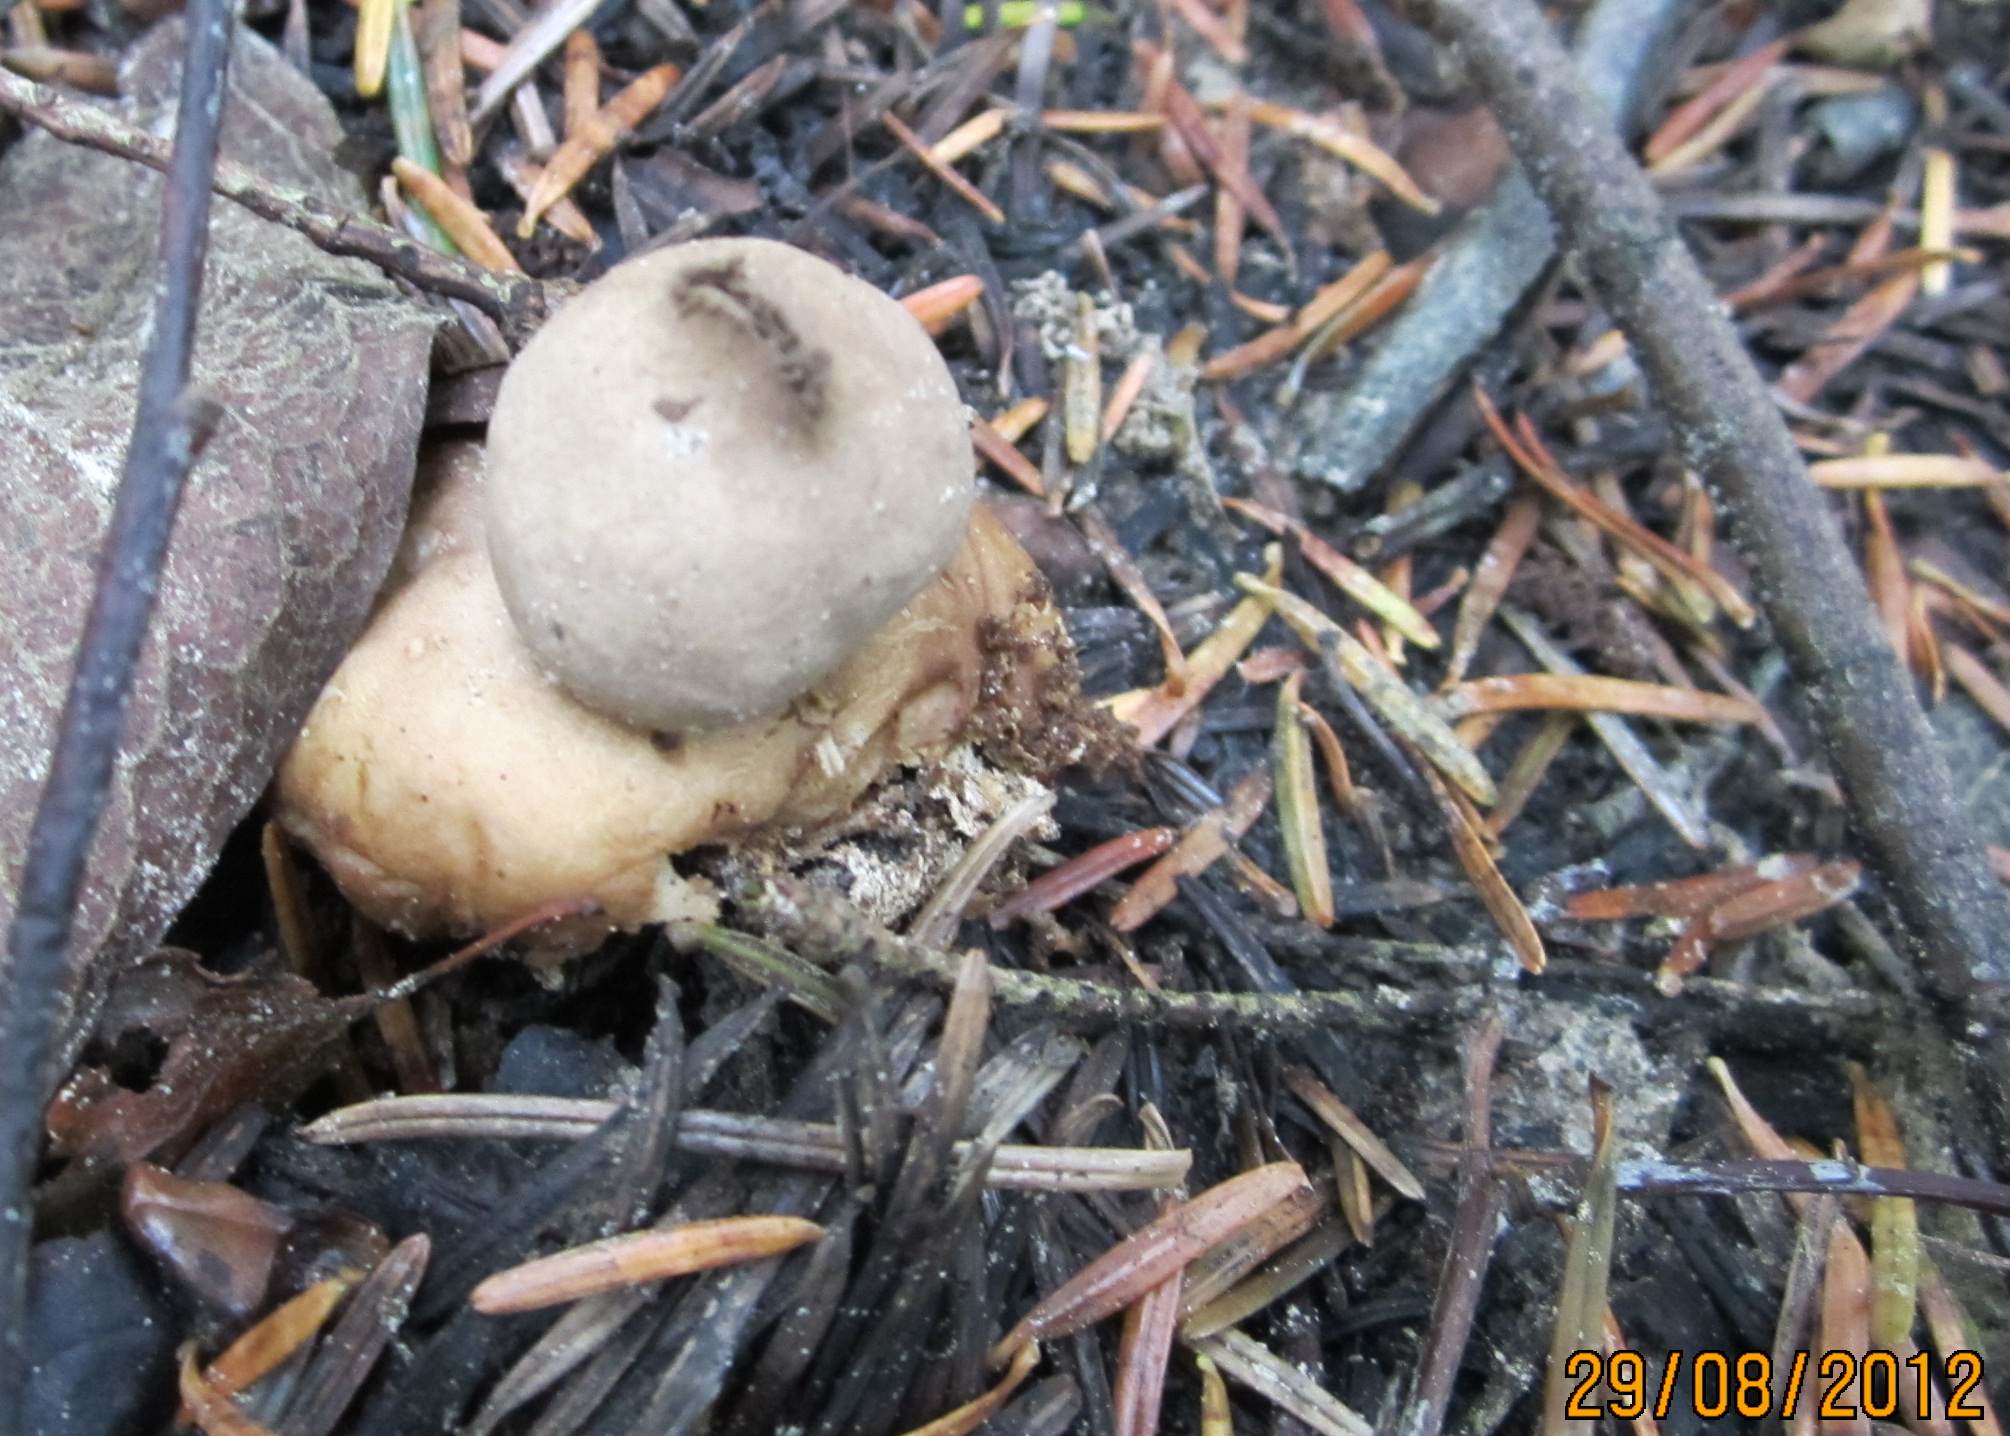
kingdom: Fungi
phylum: Basidiomycota
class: Agaricomycetes
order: Geastrales
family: Geastraceae
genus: Geastrum
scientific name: Geastrum fimbriatum
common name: frynset stjernebold
